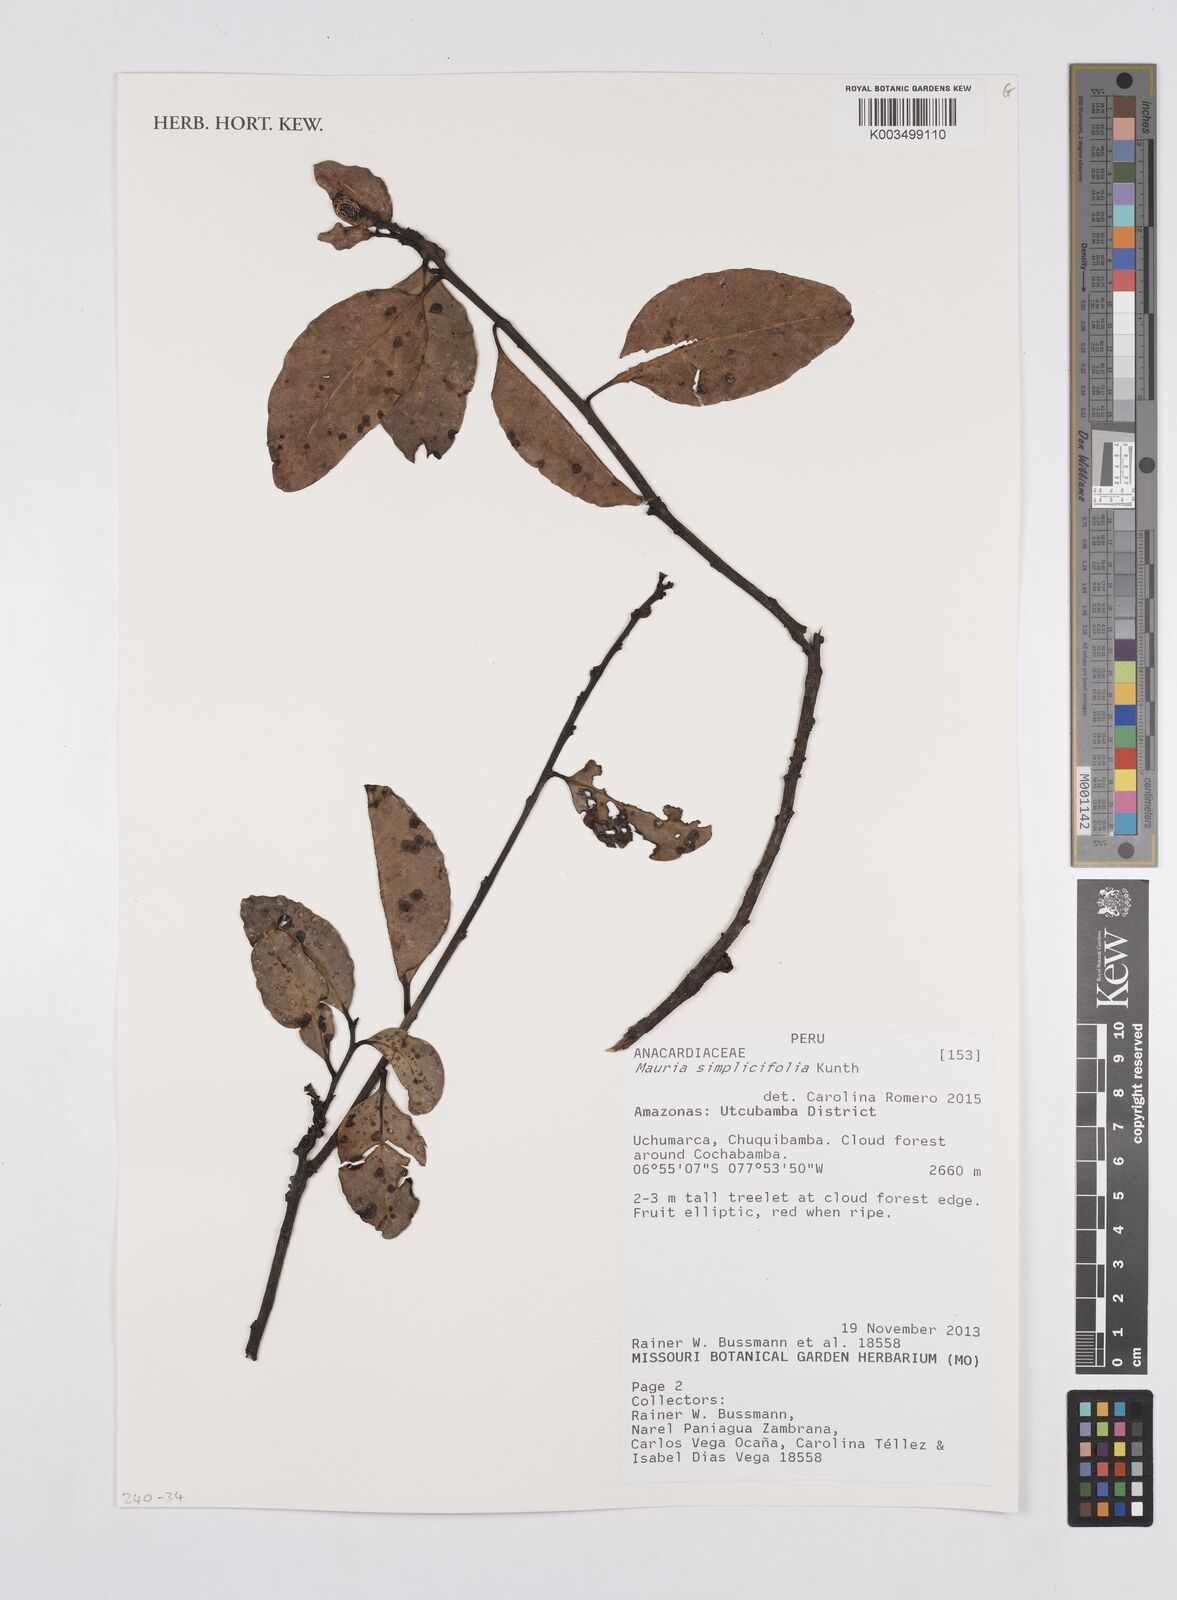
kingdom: Plantae
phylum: Tracheophyta
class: Magnoliopsida
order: Sapindales
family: Anacardiaceae
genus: Mauria
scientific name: Mauria simplicifolia
